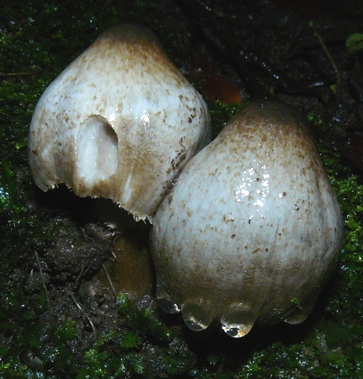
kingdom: Fungi
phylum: Basidiomycota
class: Agaricomycetes
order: Agaricales
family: Psathyrellaceae
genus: Coprinopsis
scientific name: Coprinopsis atramentaria
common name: almindelig blækhat
